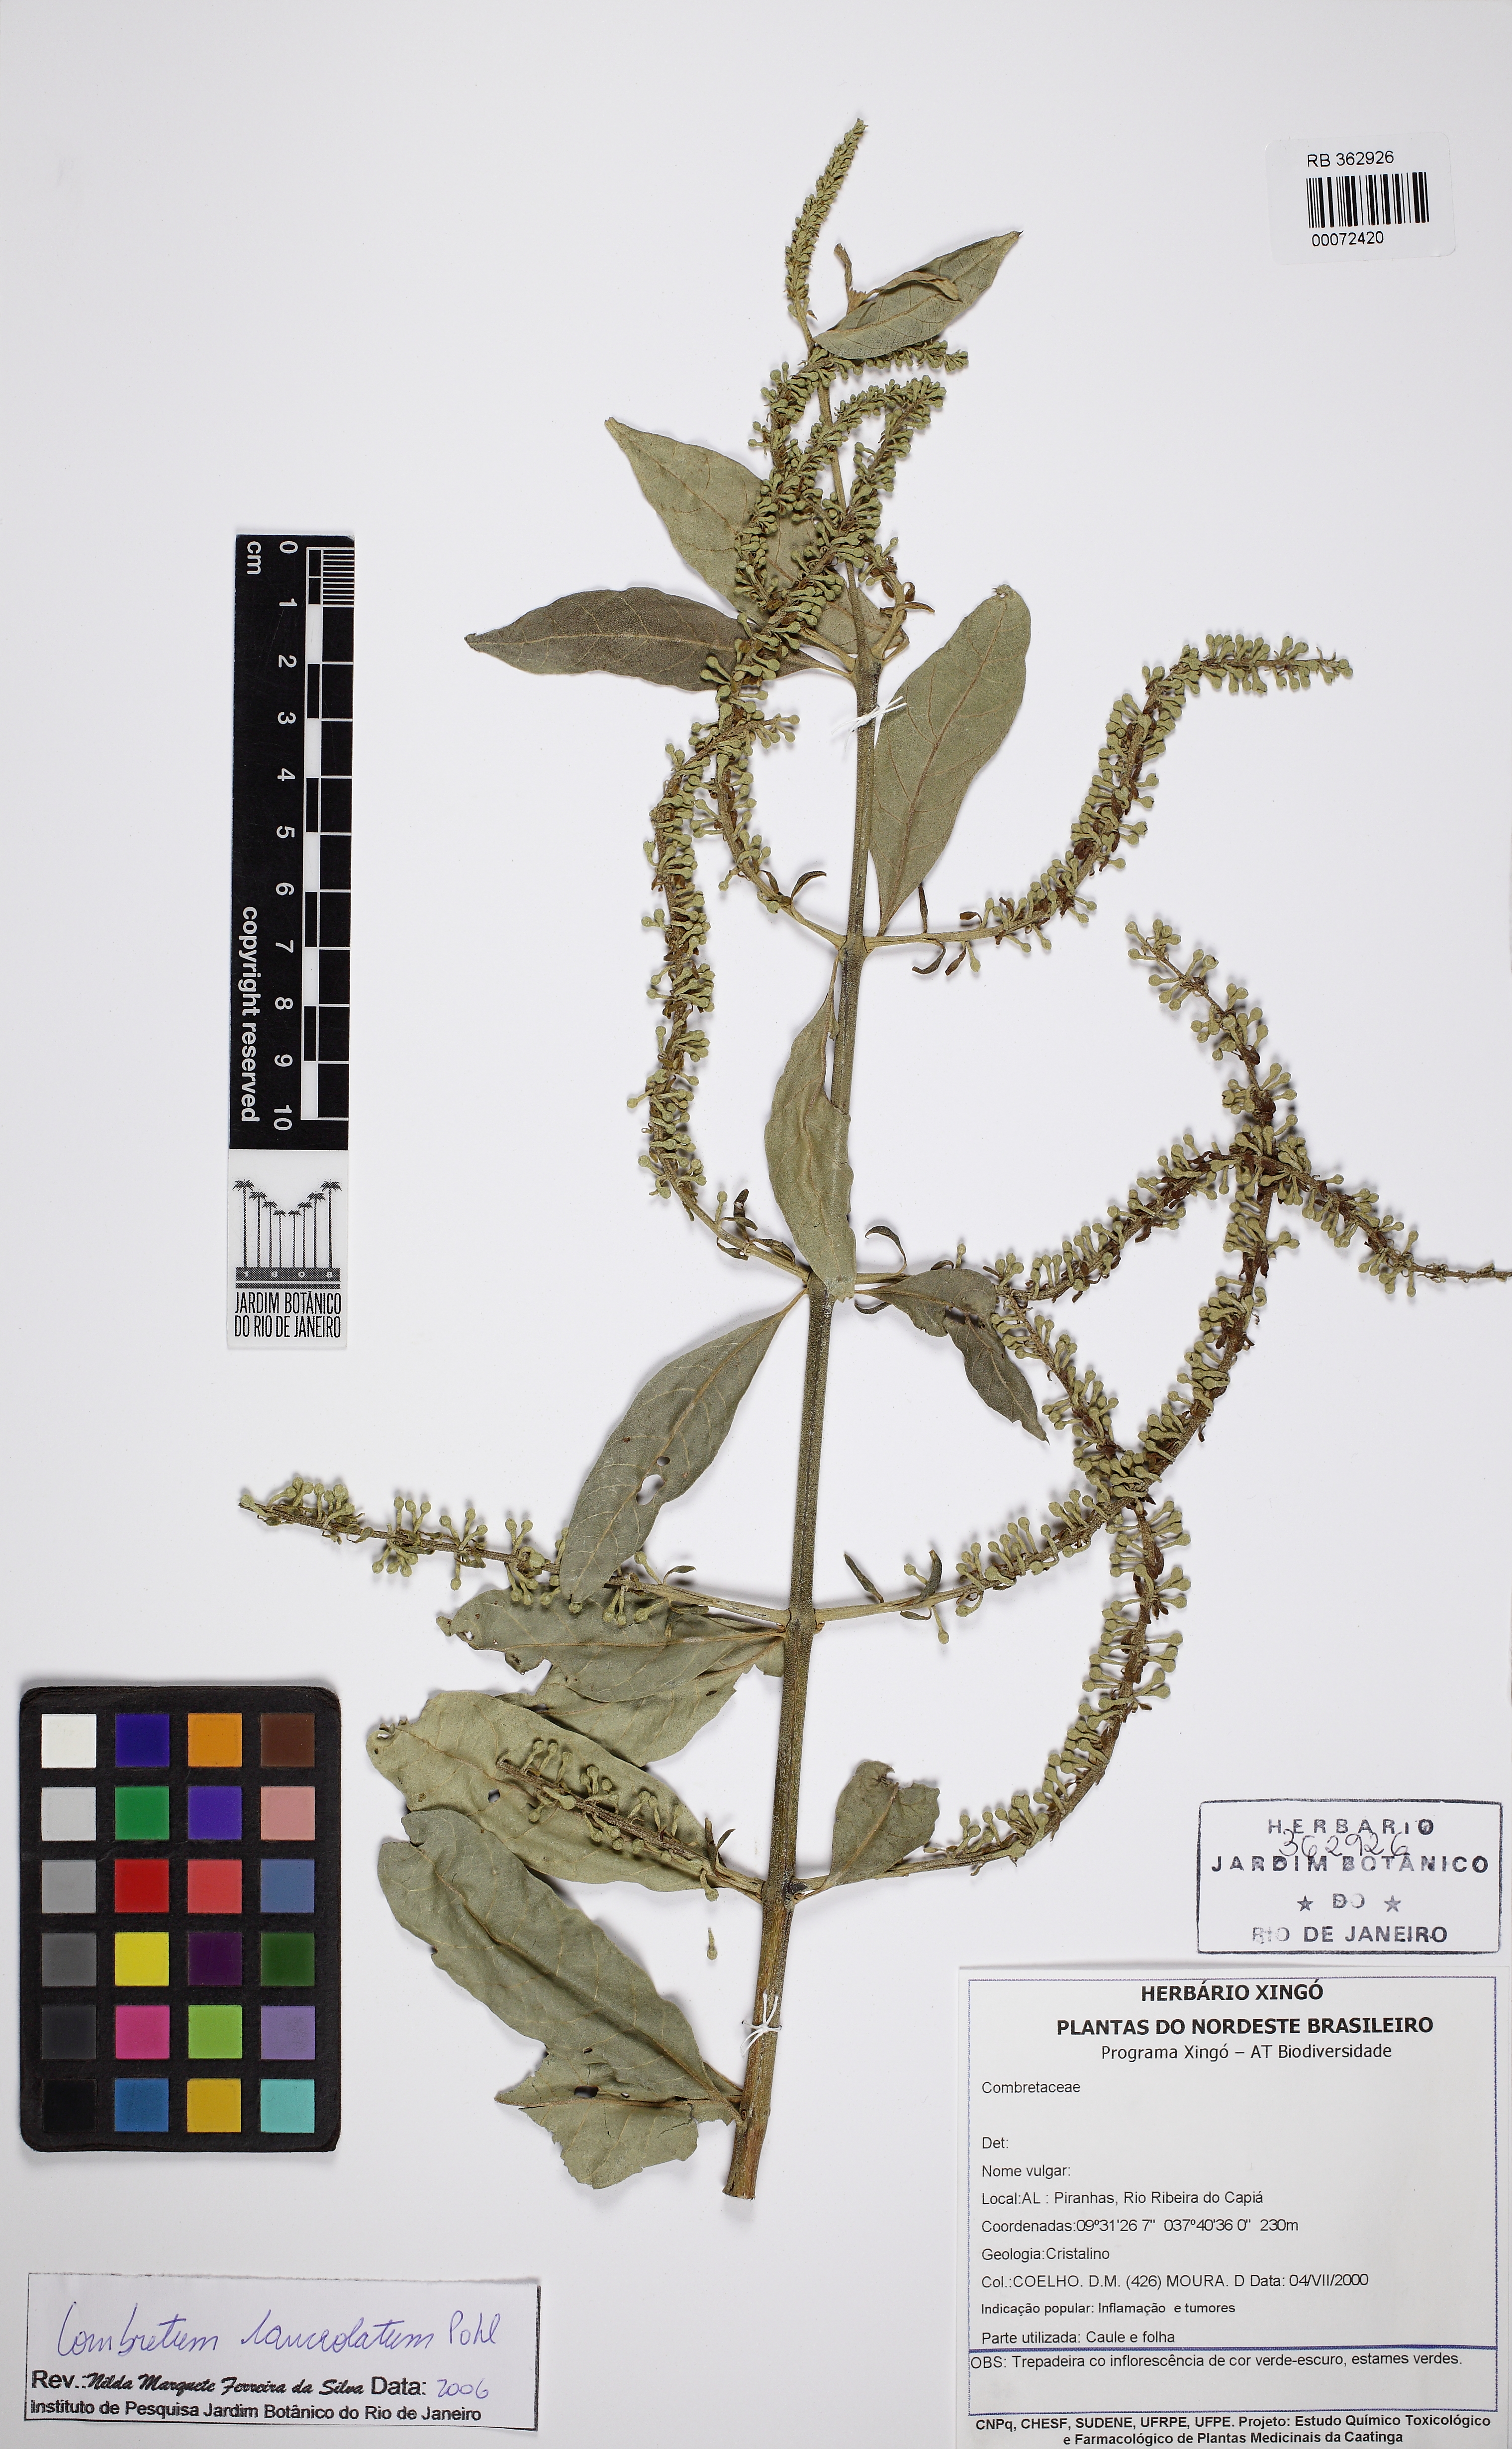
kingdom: Plantae
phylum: Tracheophyta
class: Magnoliopsida
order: Myrtales
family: Combretaceae
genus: Combretum
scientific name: Combretum lanceolatum
